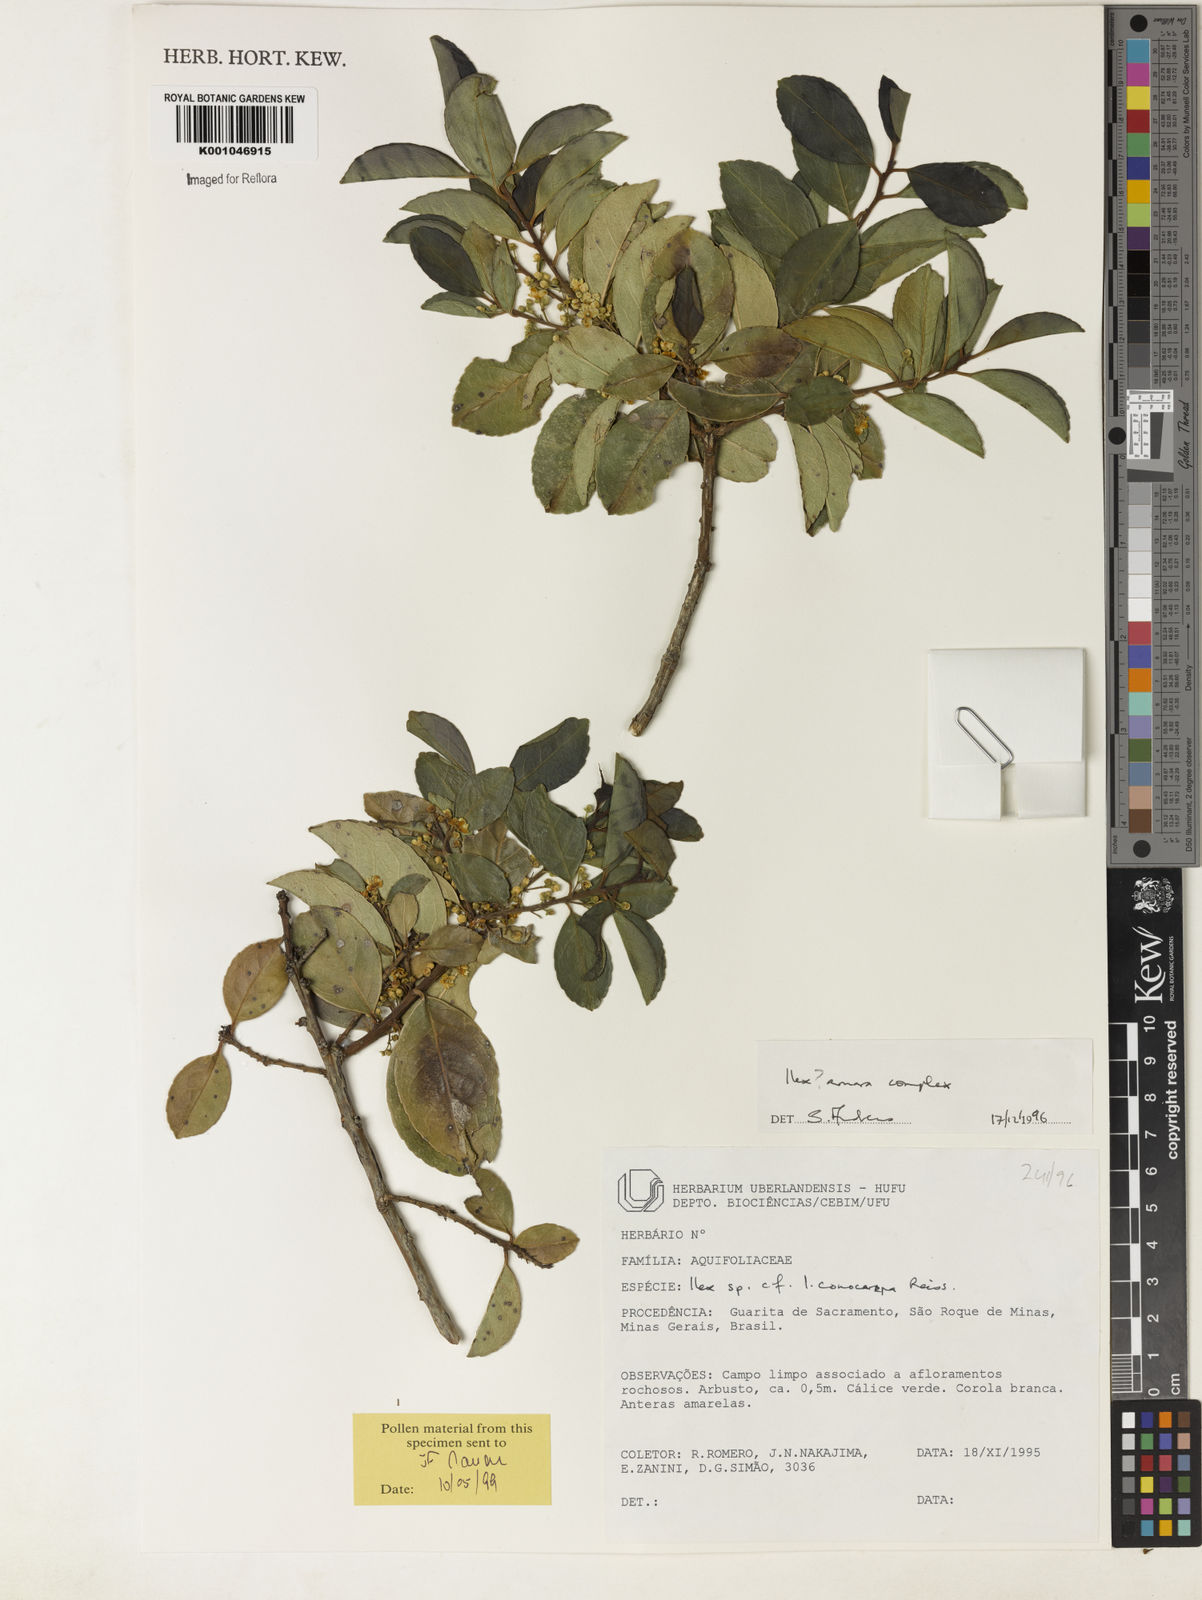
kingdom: Plantae
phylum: Tracheophyta
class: Magnoliopsida
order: Aquifoliales
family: Aquifoliaceae
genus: Ilex
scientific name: Ilex
